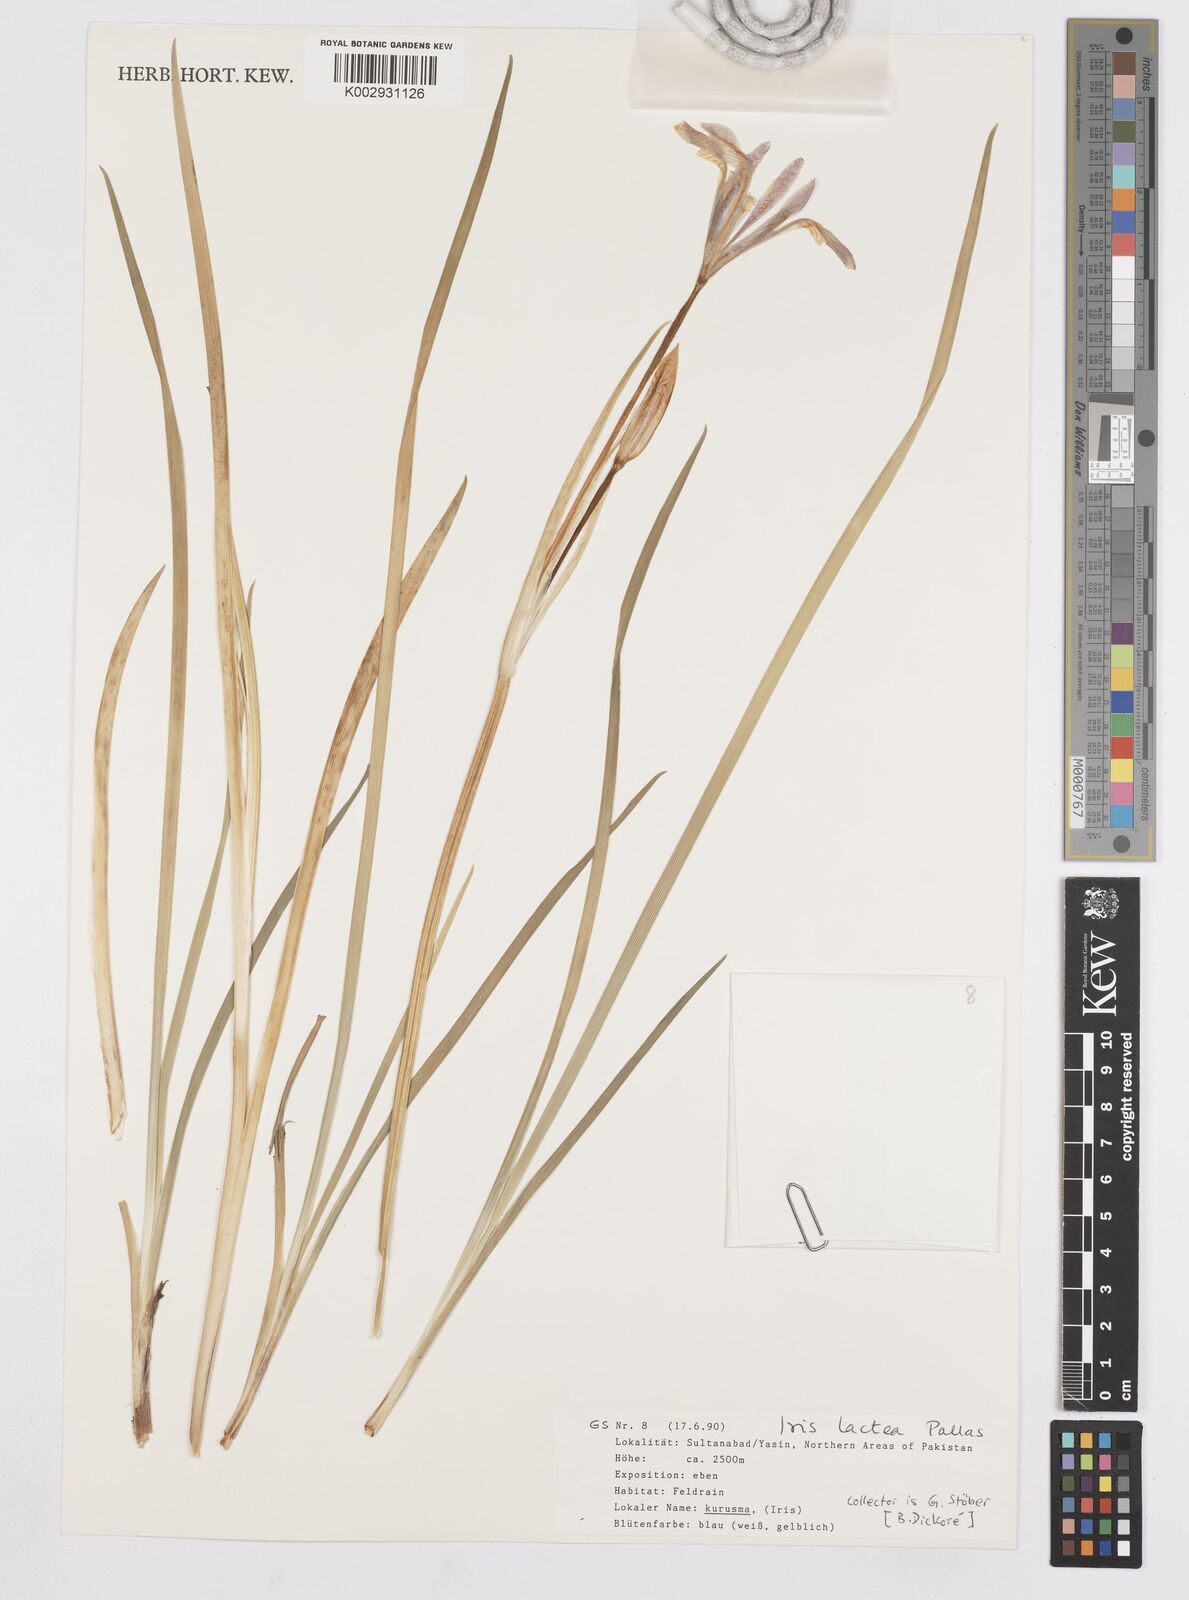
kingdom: Plantae
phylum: Tracheophyta
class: Liliopsida
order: Asparagales
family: Iridaceae
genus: Iris
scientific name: Iris lactea
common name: White-flower chinese iris
